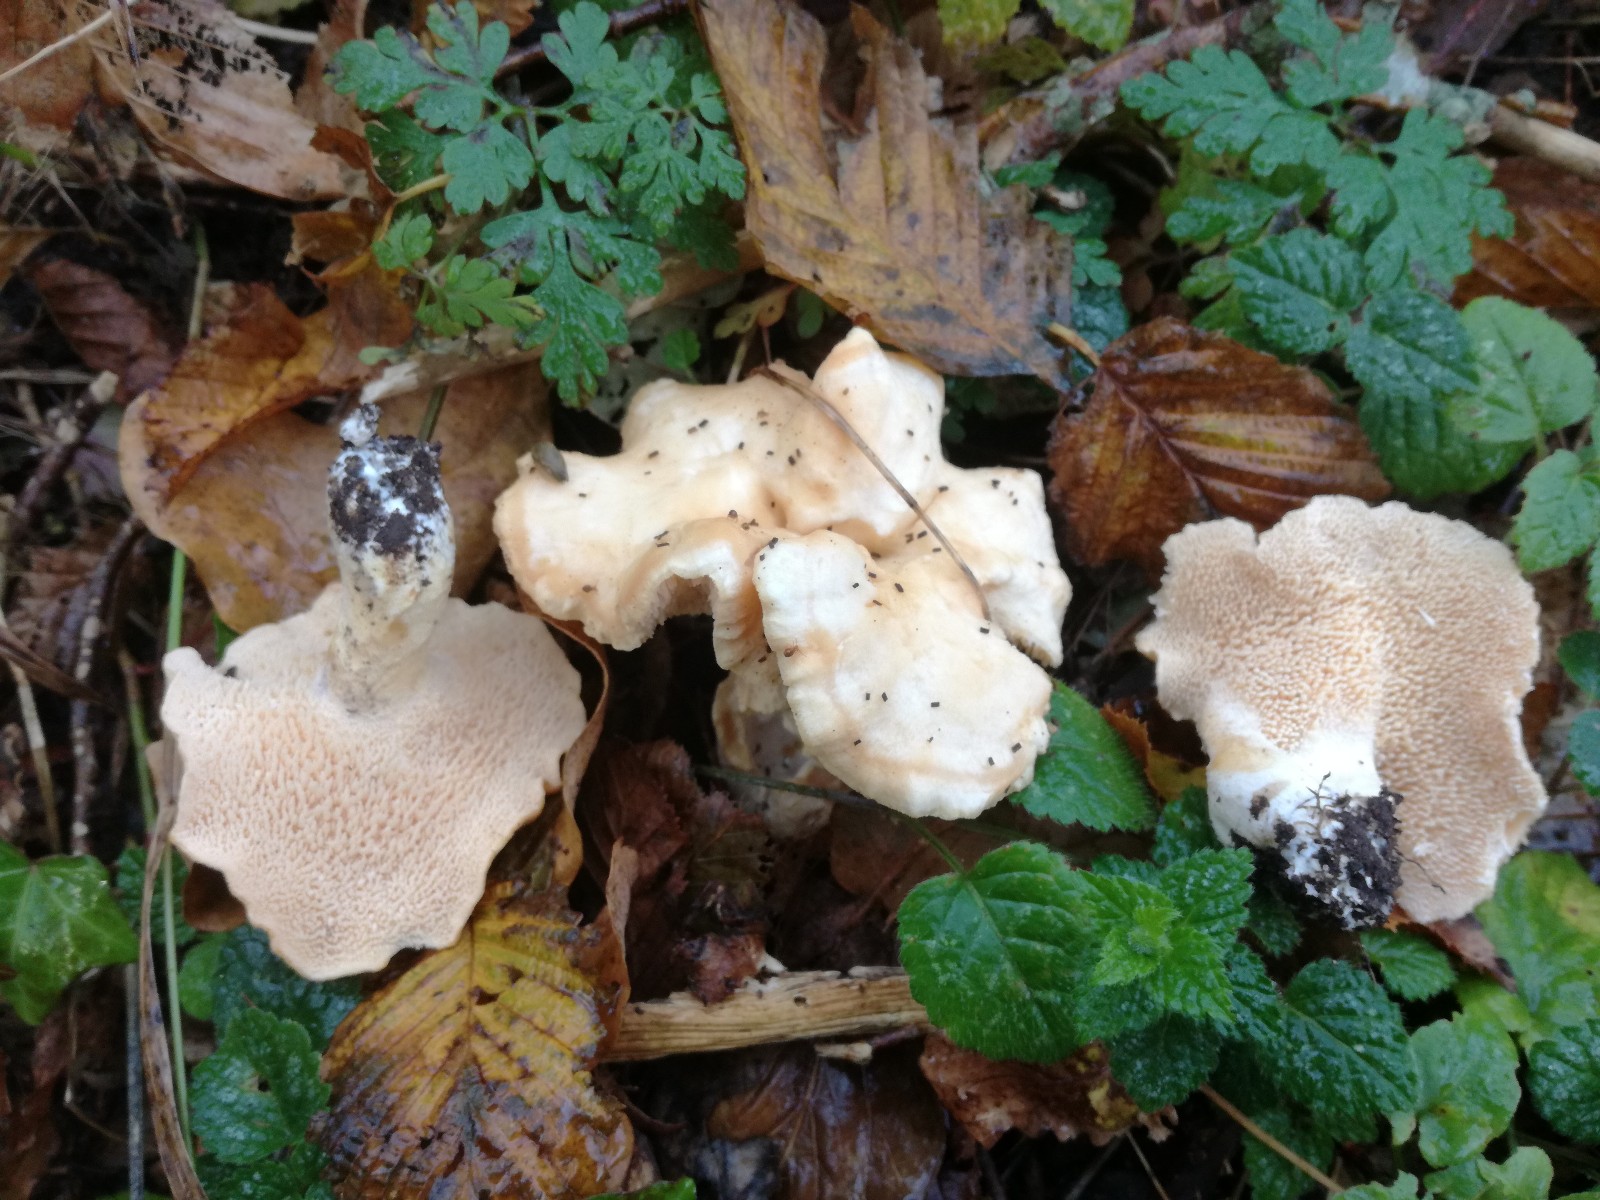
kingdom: Fungi
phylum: Basidiomycota
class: Agaricomycetes
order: Cantharellales
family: Hydnaceae
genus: Hydnum
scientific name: Hydnum ibericum
